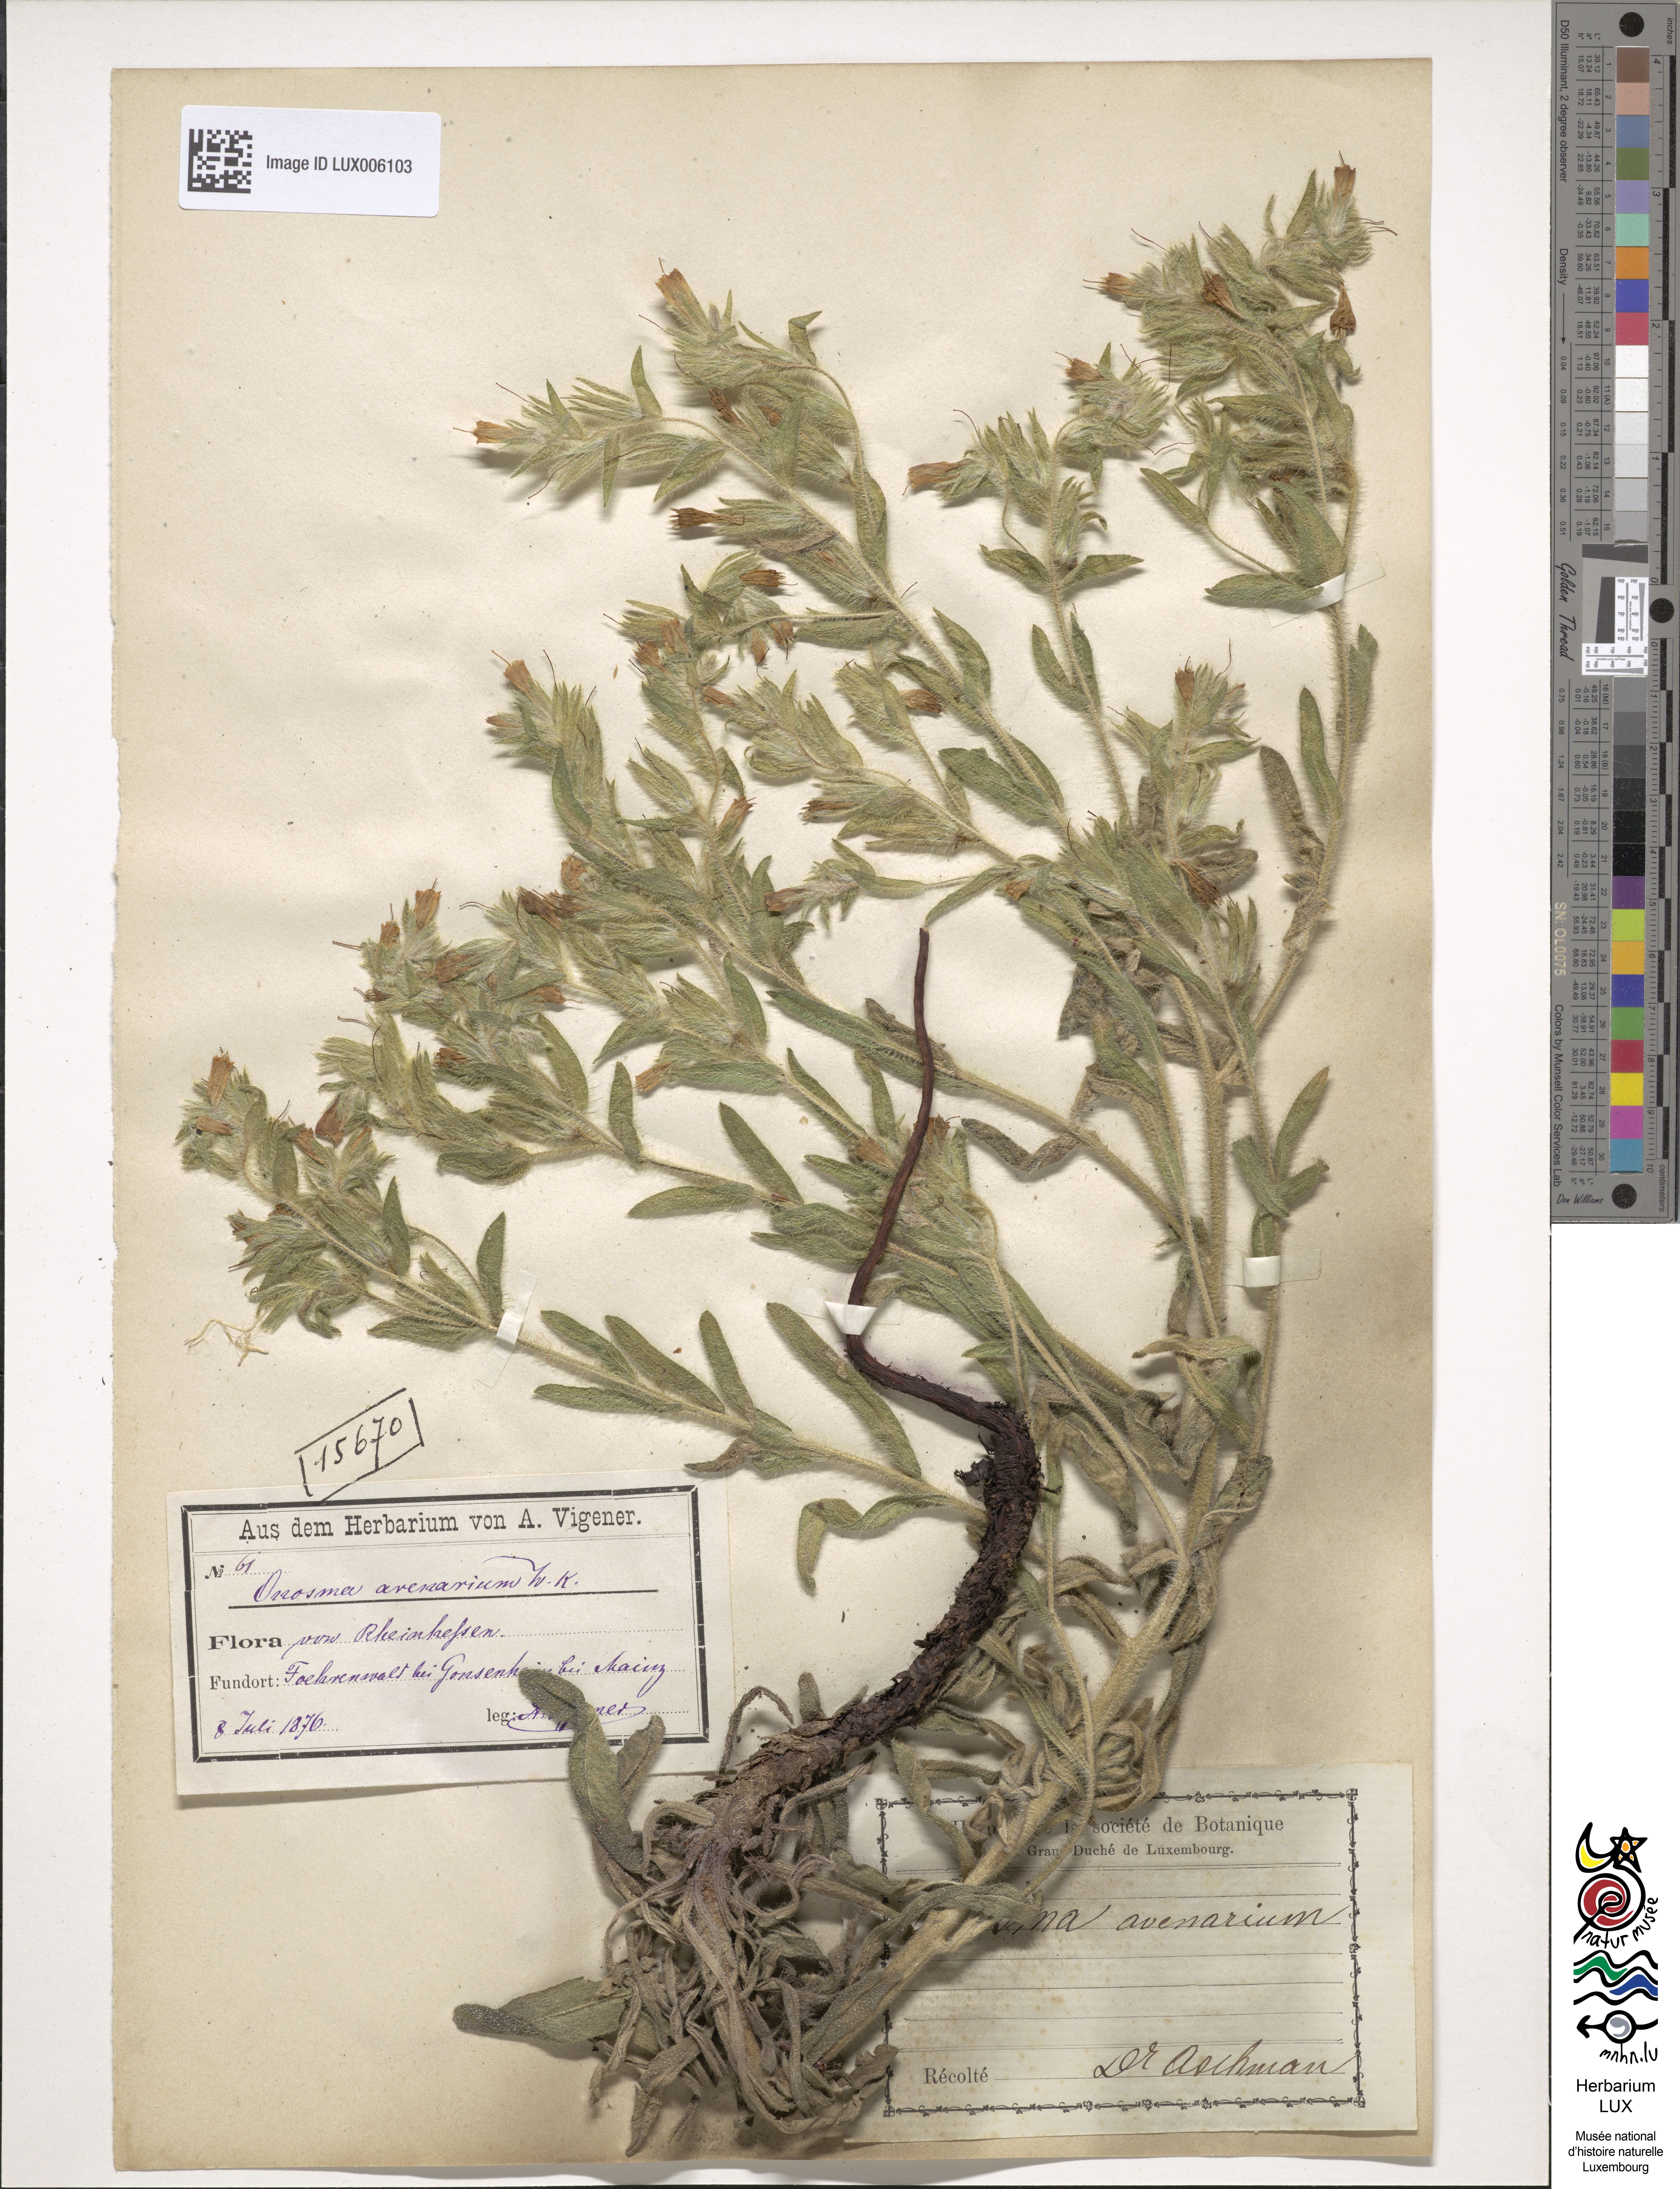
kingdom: Plantae
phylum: Tracheophyta
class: Magnoliopsida
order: Boraginales
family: Boraginaceae
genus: Onosma
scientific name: Onosma arenaria
